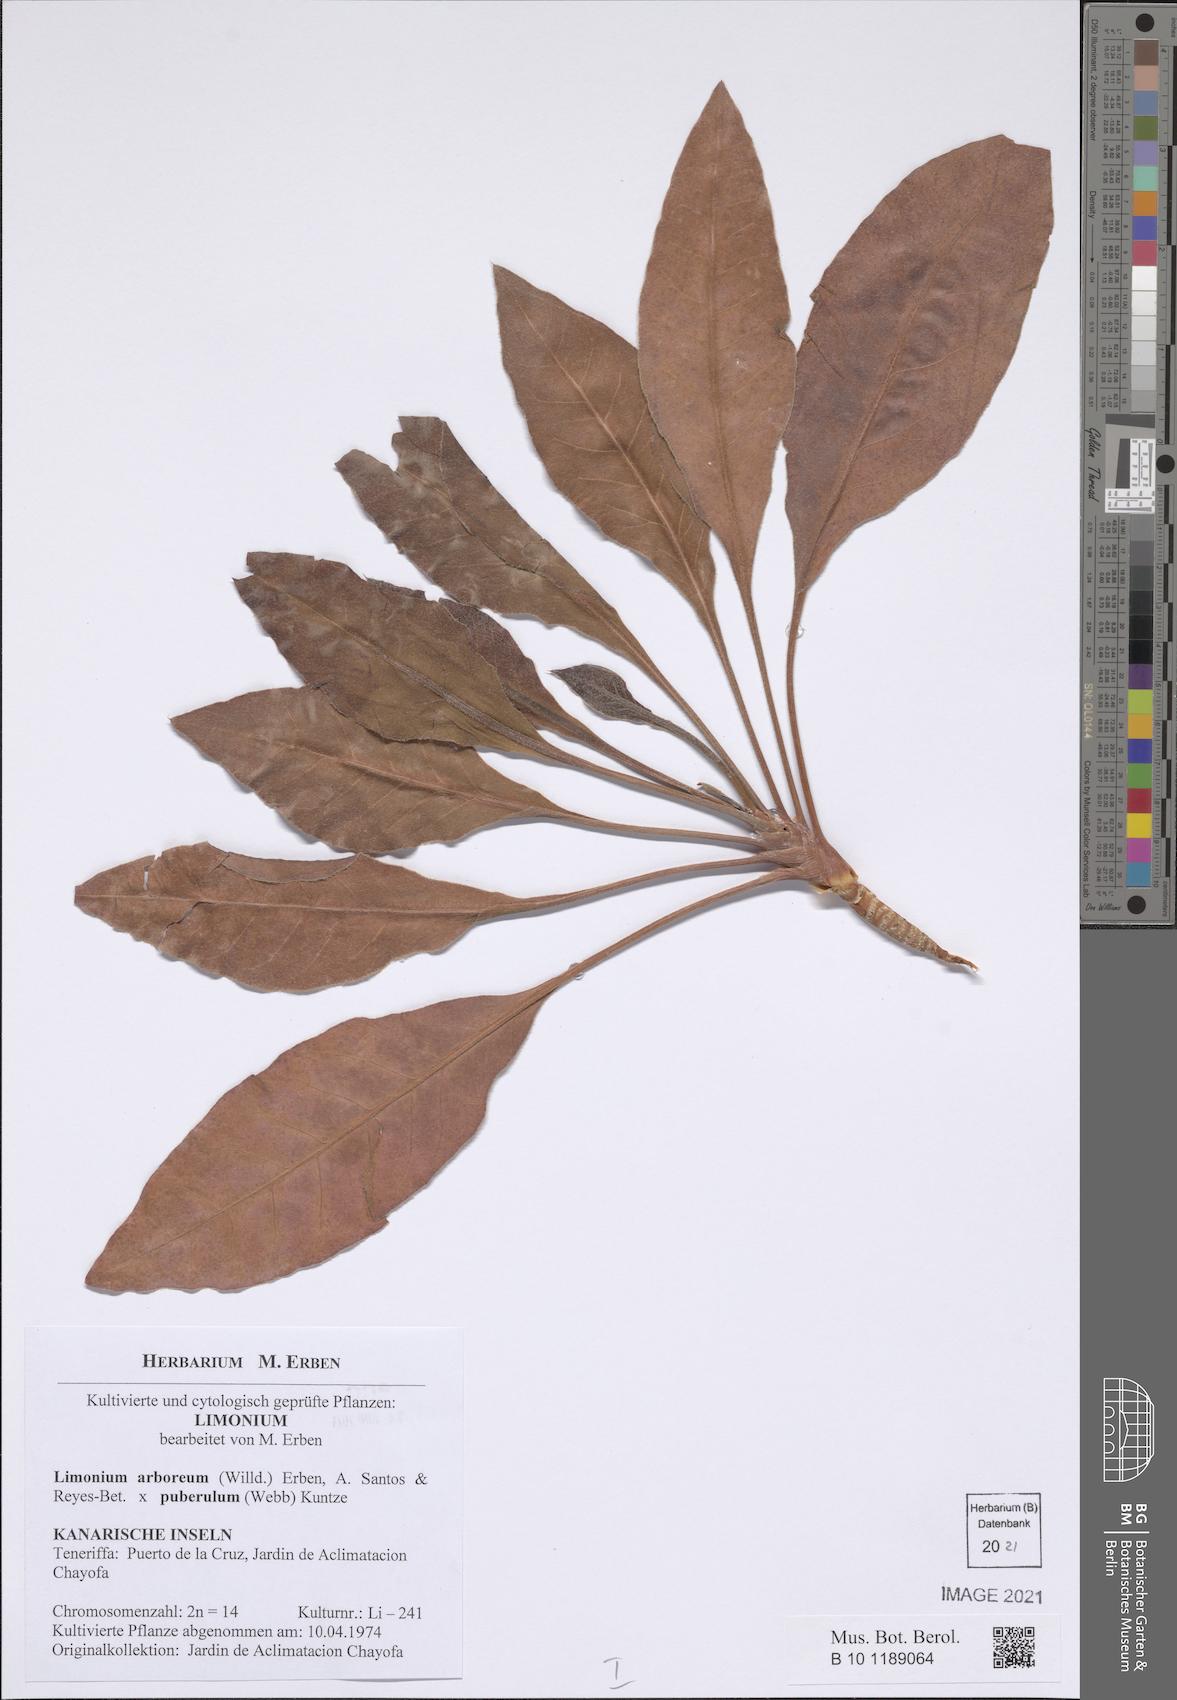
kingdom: Plantae
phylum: Tracheophyta
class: Magnoliopsida
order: Caryophyllales
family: Plumbaginaceae
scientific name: Plumbaginaceae
